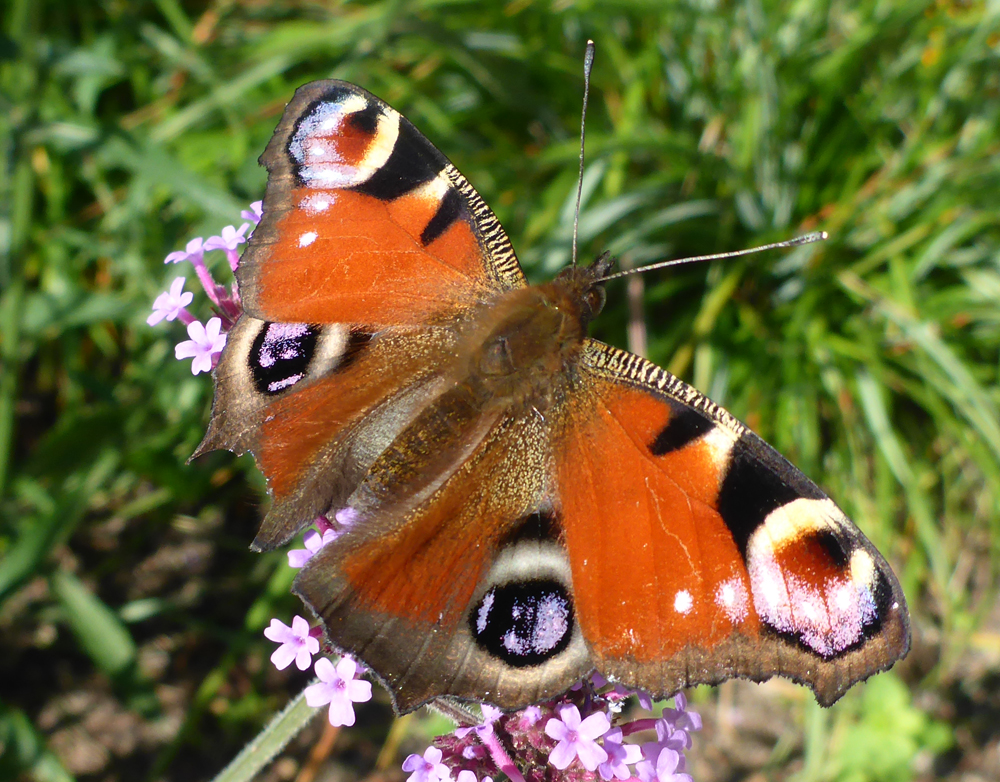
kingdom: Animalia
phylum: Arthropoda
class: Insecta
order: Lepidoptera
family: Nymphalidae
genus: Aglais
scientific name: Aglais io
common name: Peacock
